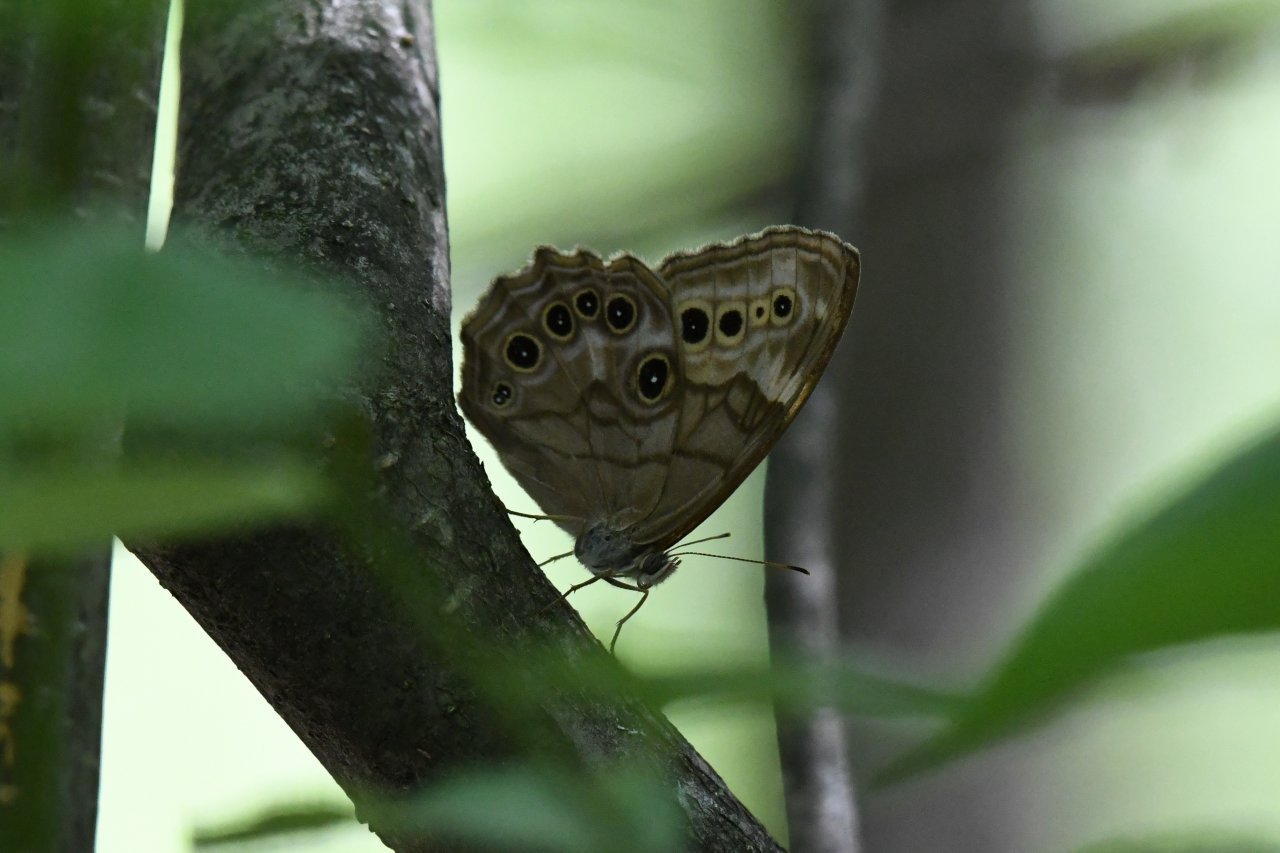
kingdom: Animalia
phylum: Arthropoda
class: Insecta
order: Lepidoptera
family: Nymphalidae
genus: Lethe
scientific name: Lethe anthedon
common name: Northern Pearly-Eye
